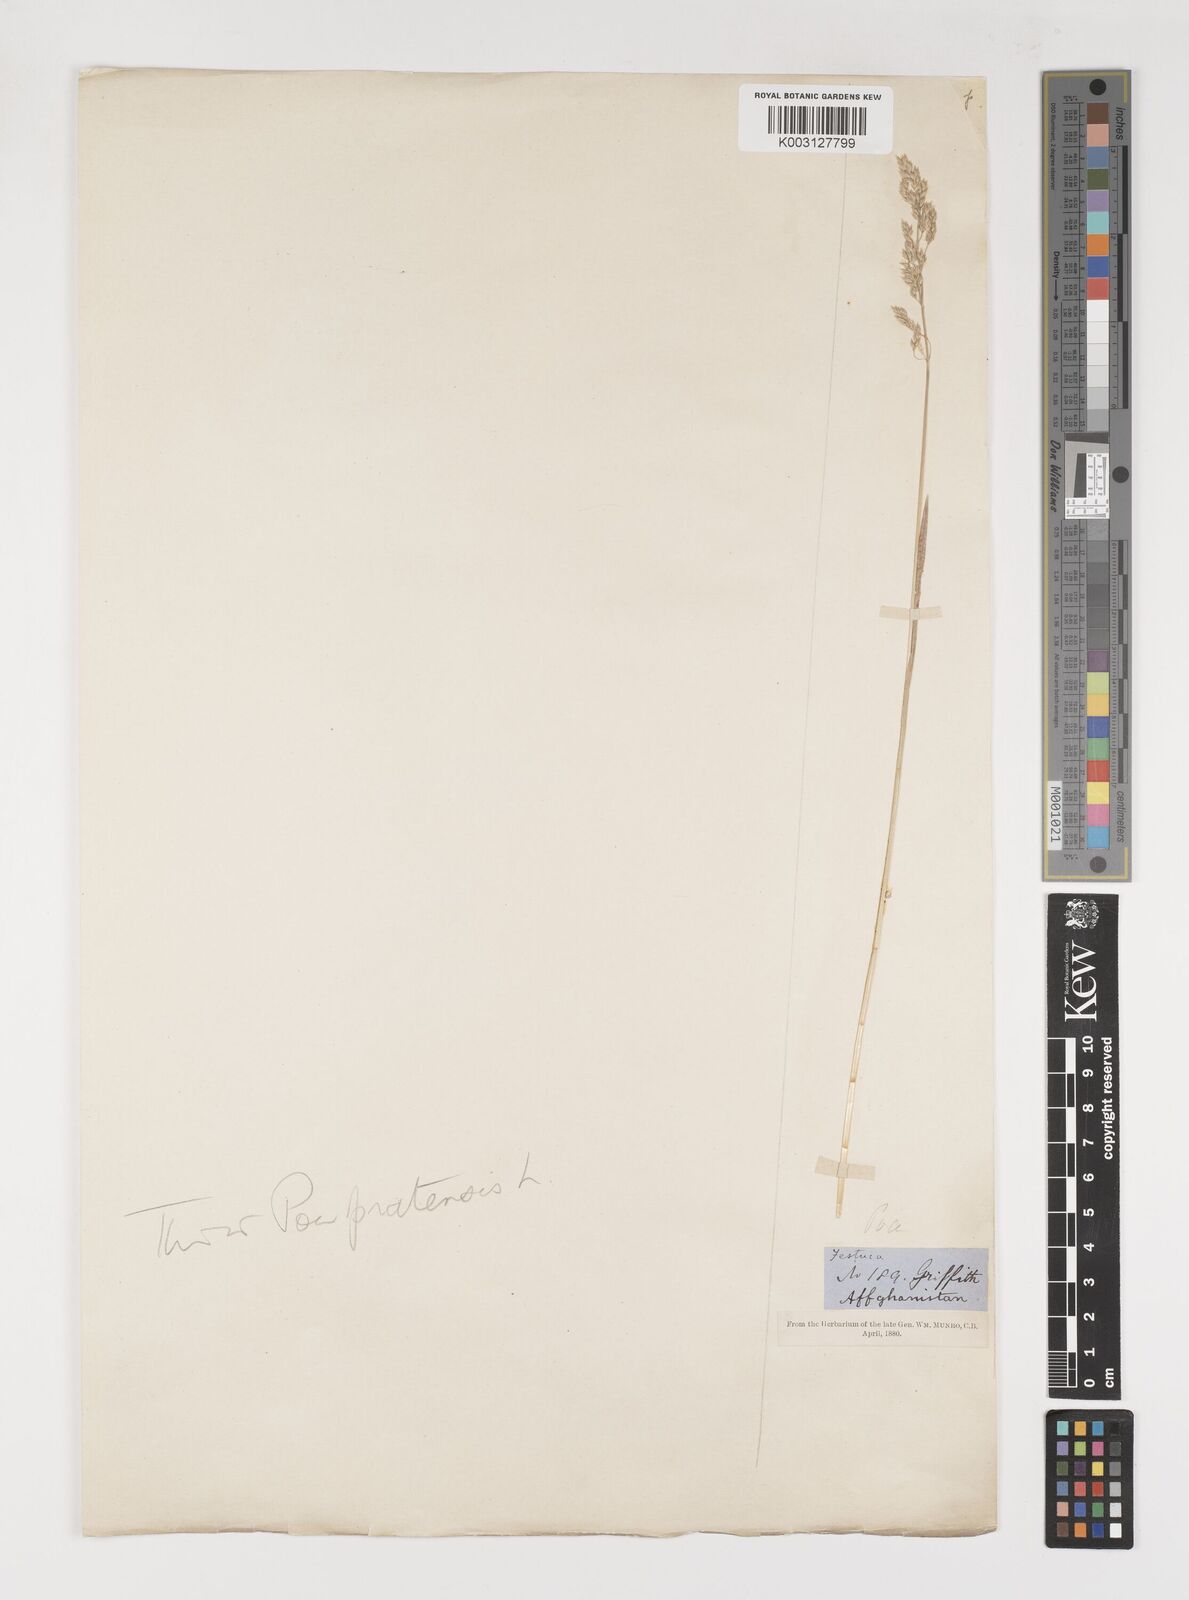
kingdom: Plantae
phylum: Tracheophyta
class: Liliopsida
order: Poales
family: Poaceae
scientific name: Poaceae
